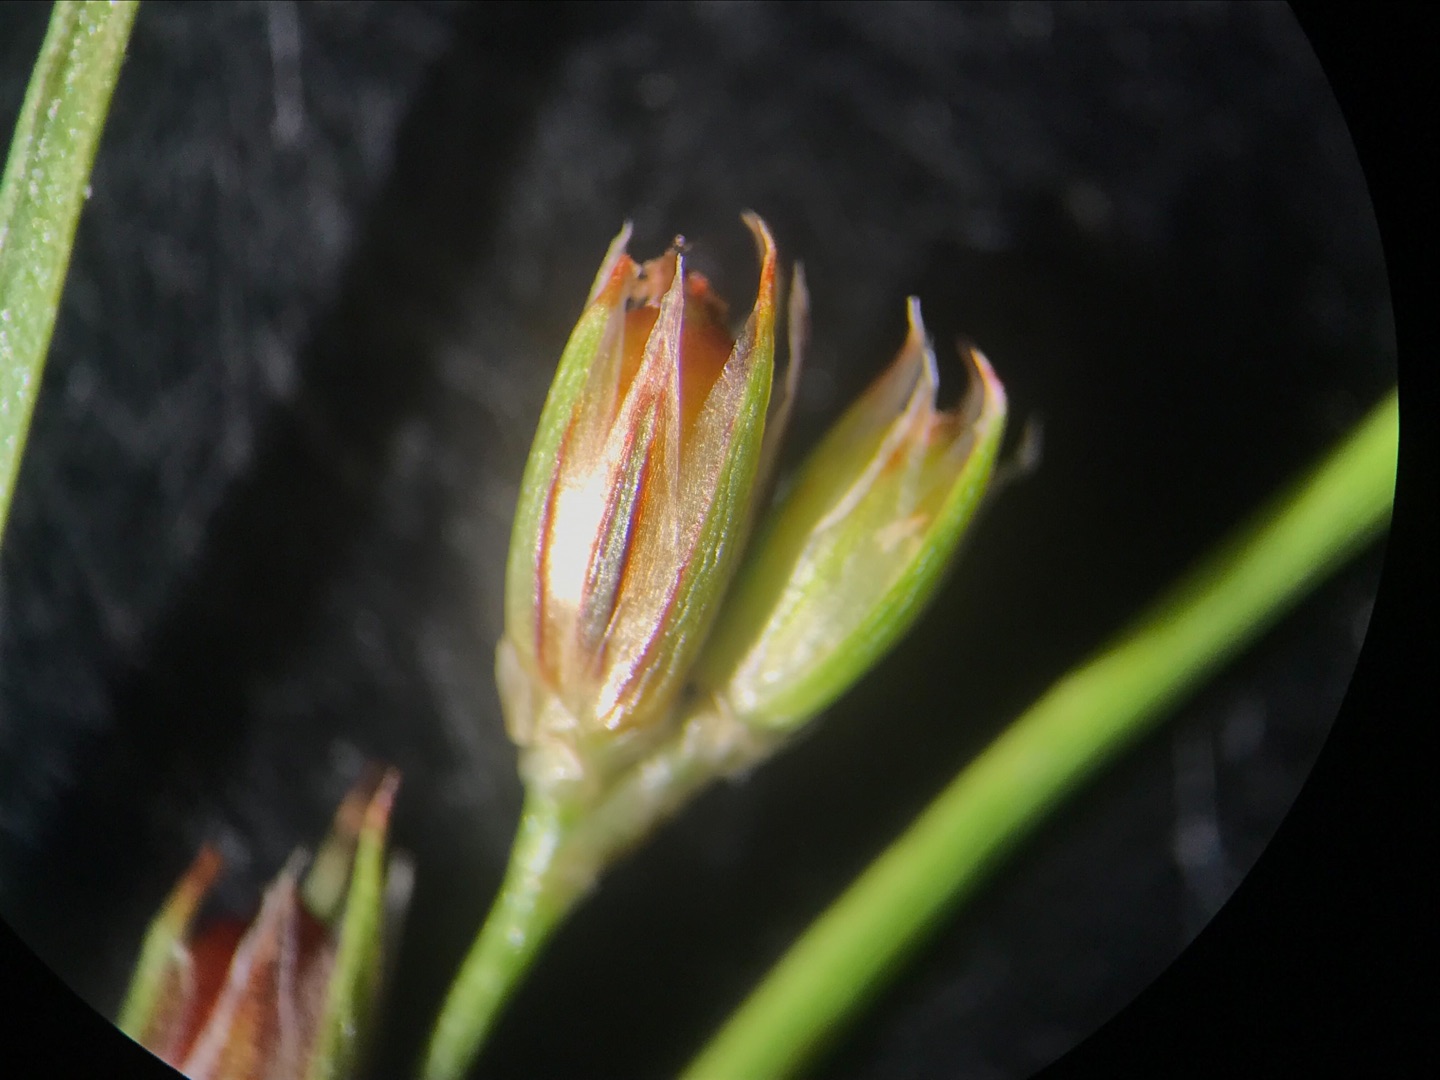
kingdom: Plantae
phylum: Tracheophyta
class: Liliopsida
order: Poales
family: Juncaceae
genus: Juncus
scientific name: Juncus foliosus
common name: Stribet siv
